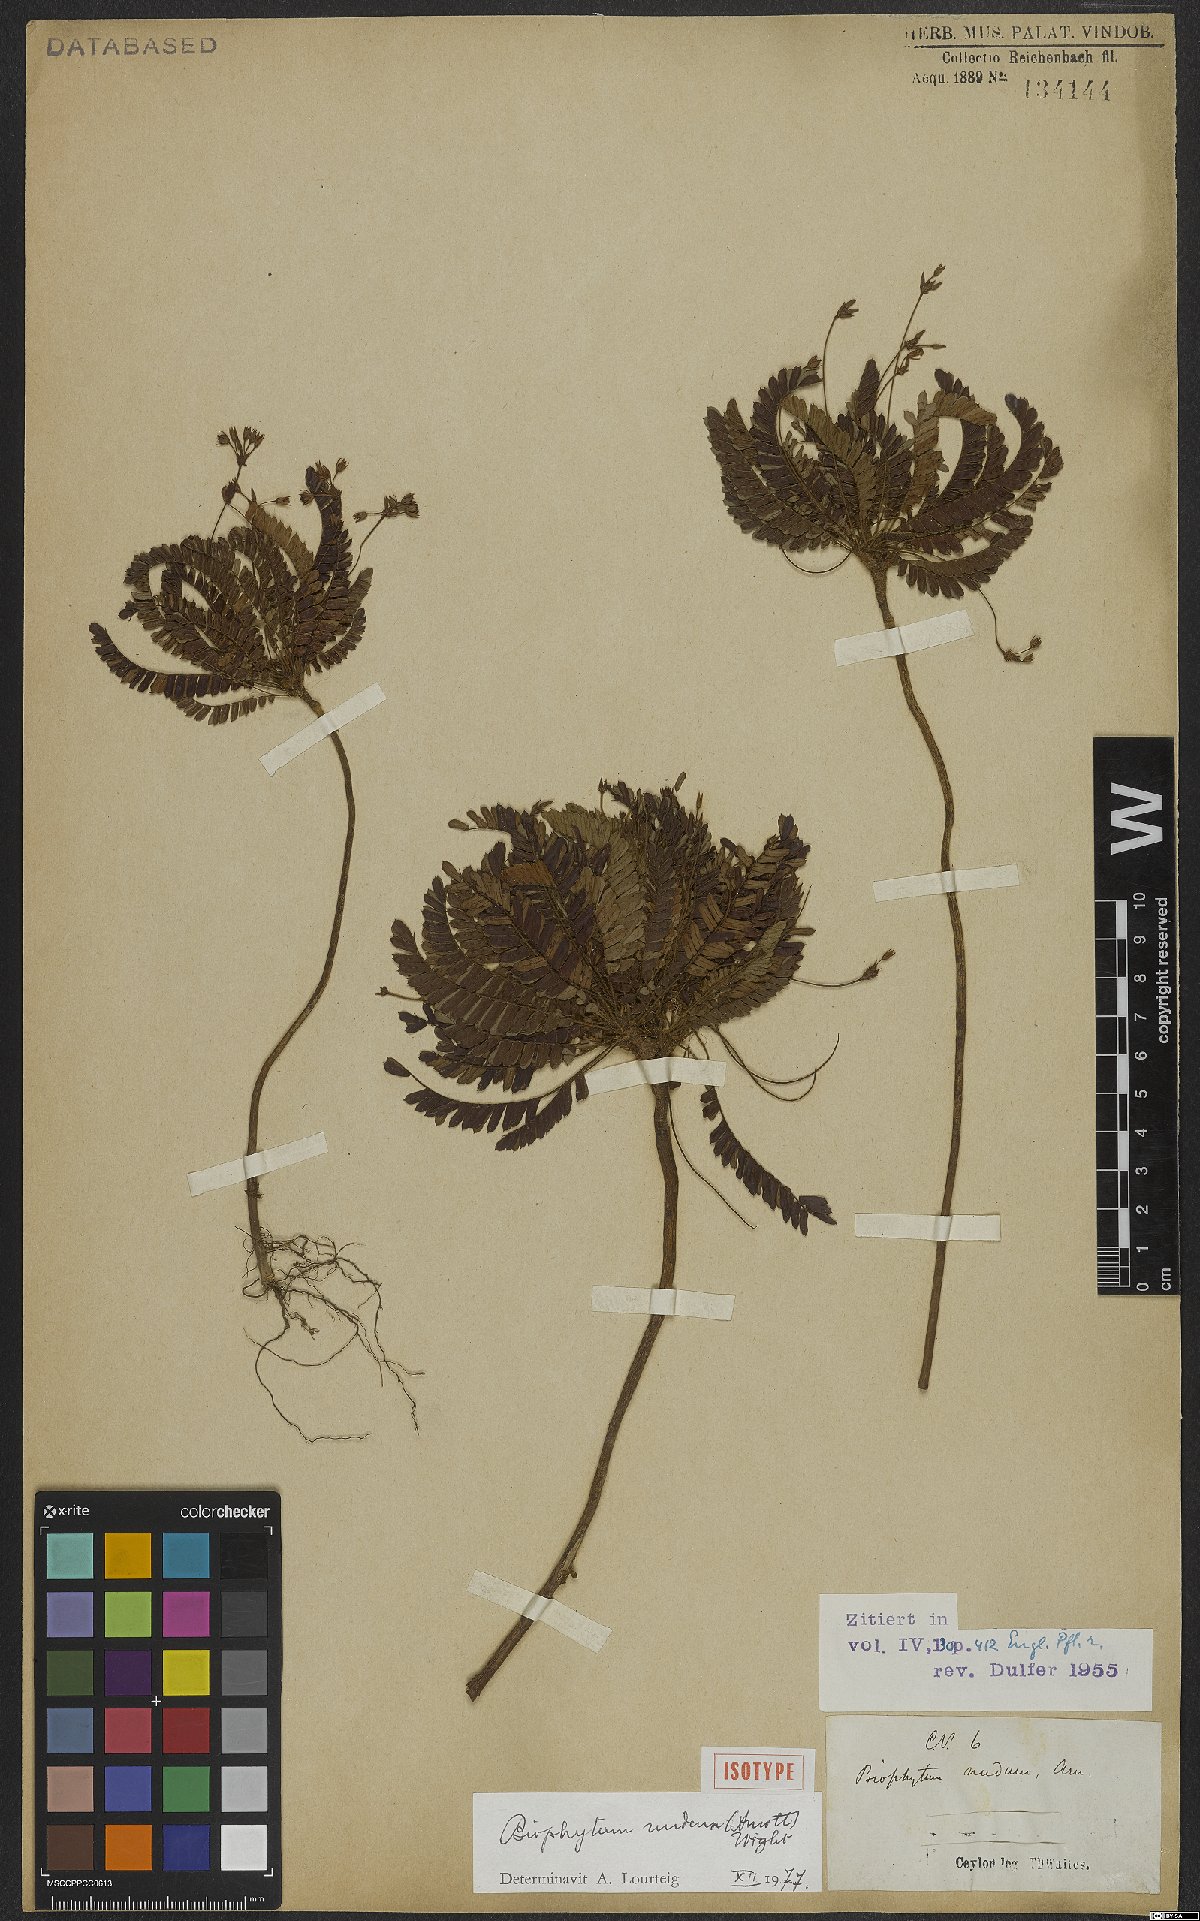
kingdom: Plantae
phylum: Tracheophyta
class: Magnoliopsida
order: Oxalidales
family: Oxalidaceae
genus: Biophytum
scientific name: Biophytum nudum
